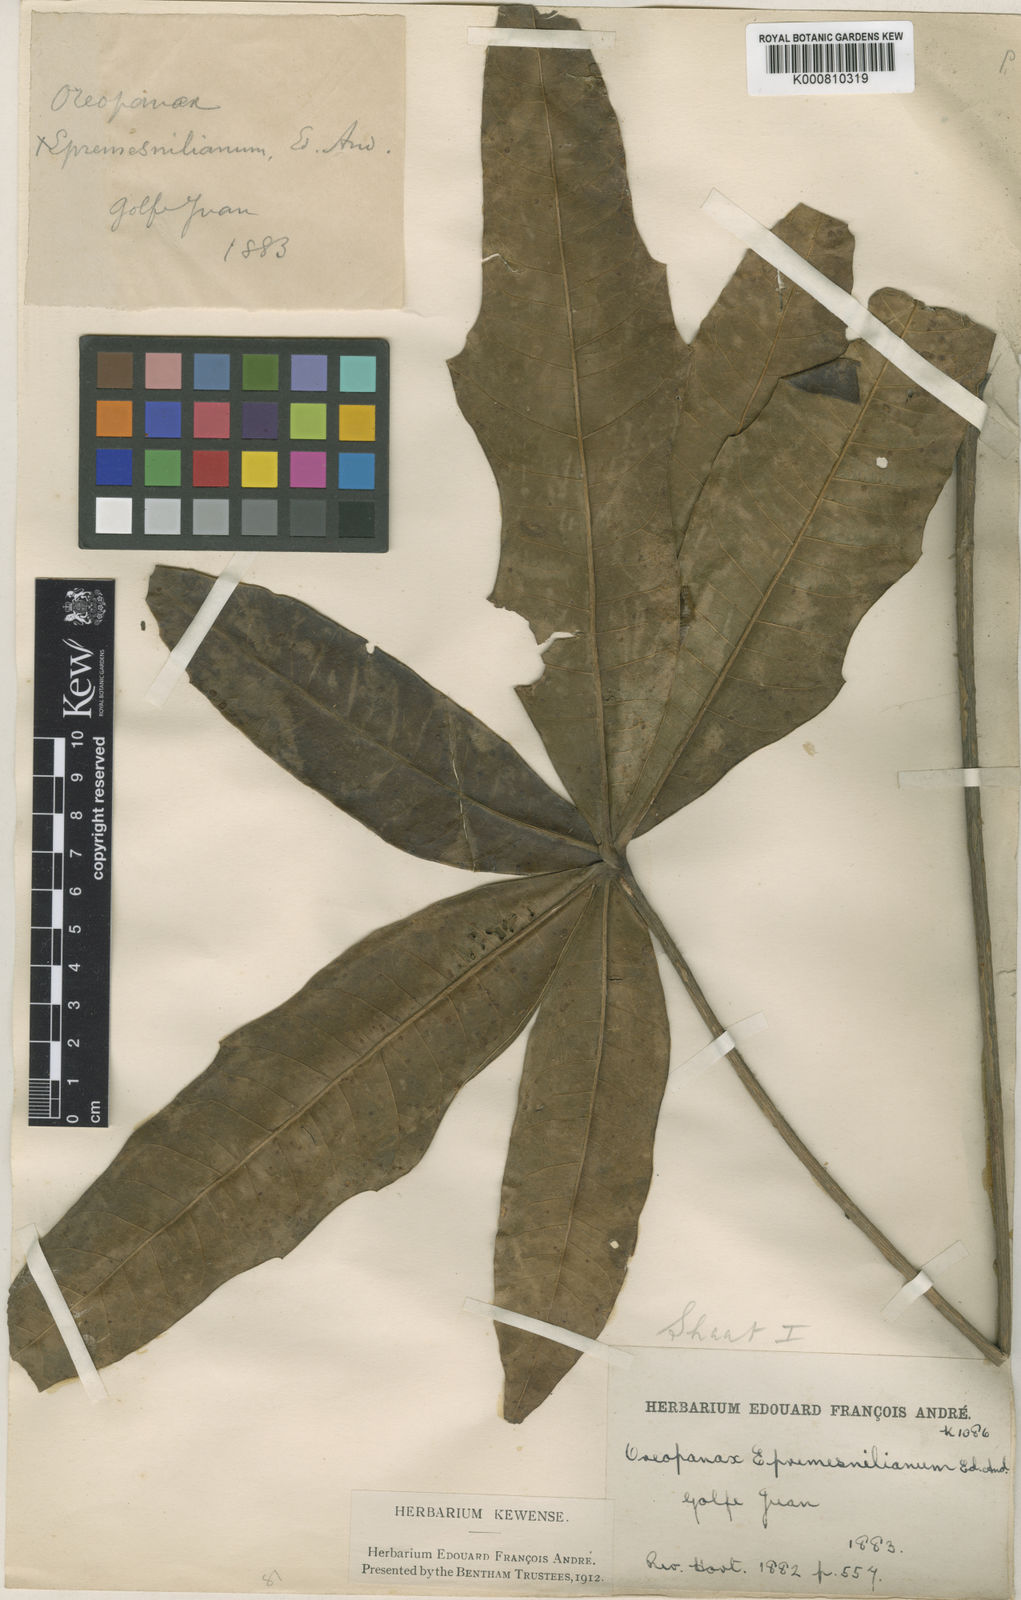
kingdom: Plantae
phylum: Tracheophyta
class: Magnoliopsida
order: Apiales
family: Araliaceae
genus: Oreopanax
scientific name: Oreopanax
